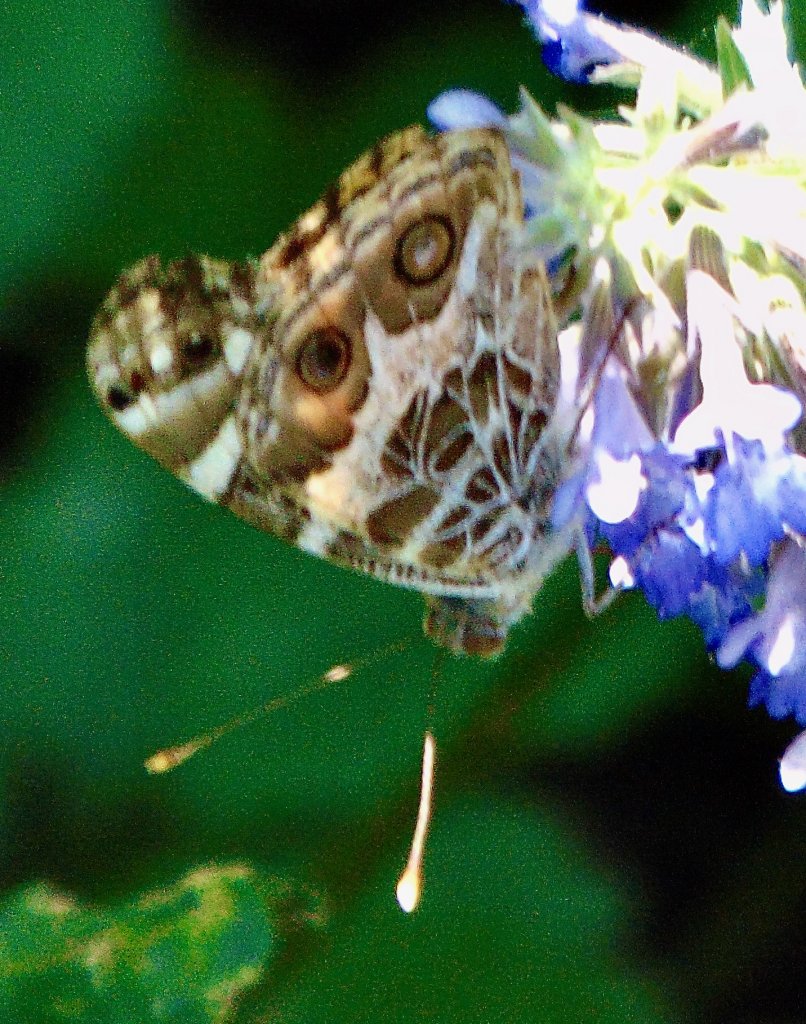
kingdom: Animalia
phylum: Arthropoda
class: Insecta
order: Lepidoptera
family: Nymphalidae
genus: Vanessa
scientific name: Vanessa virginiensis
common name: American Lady
